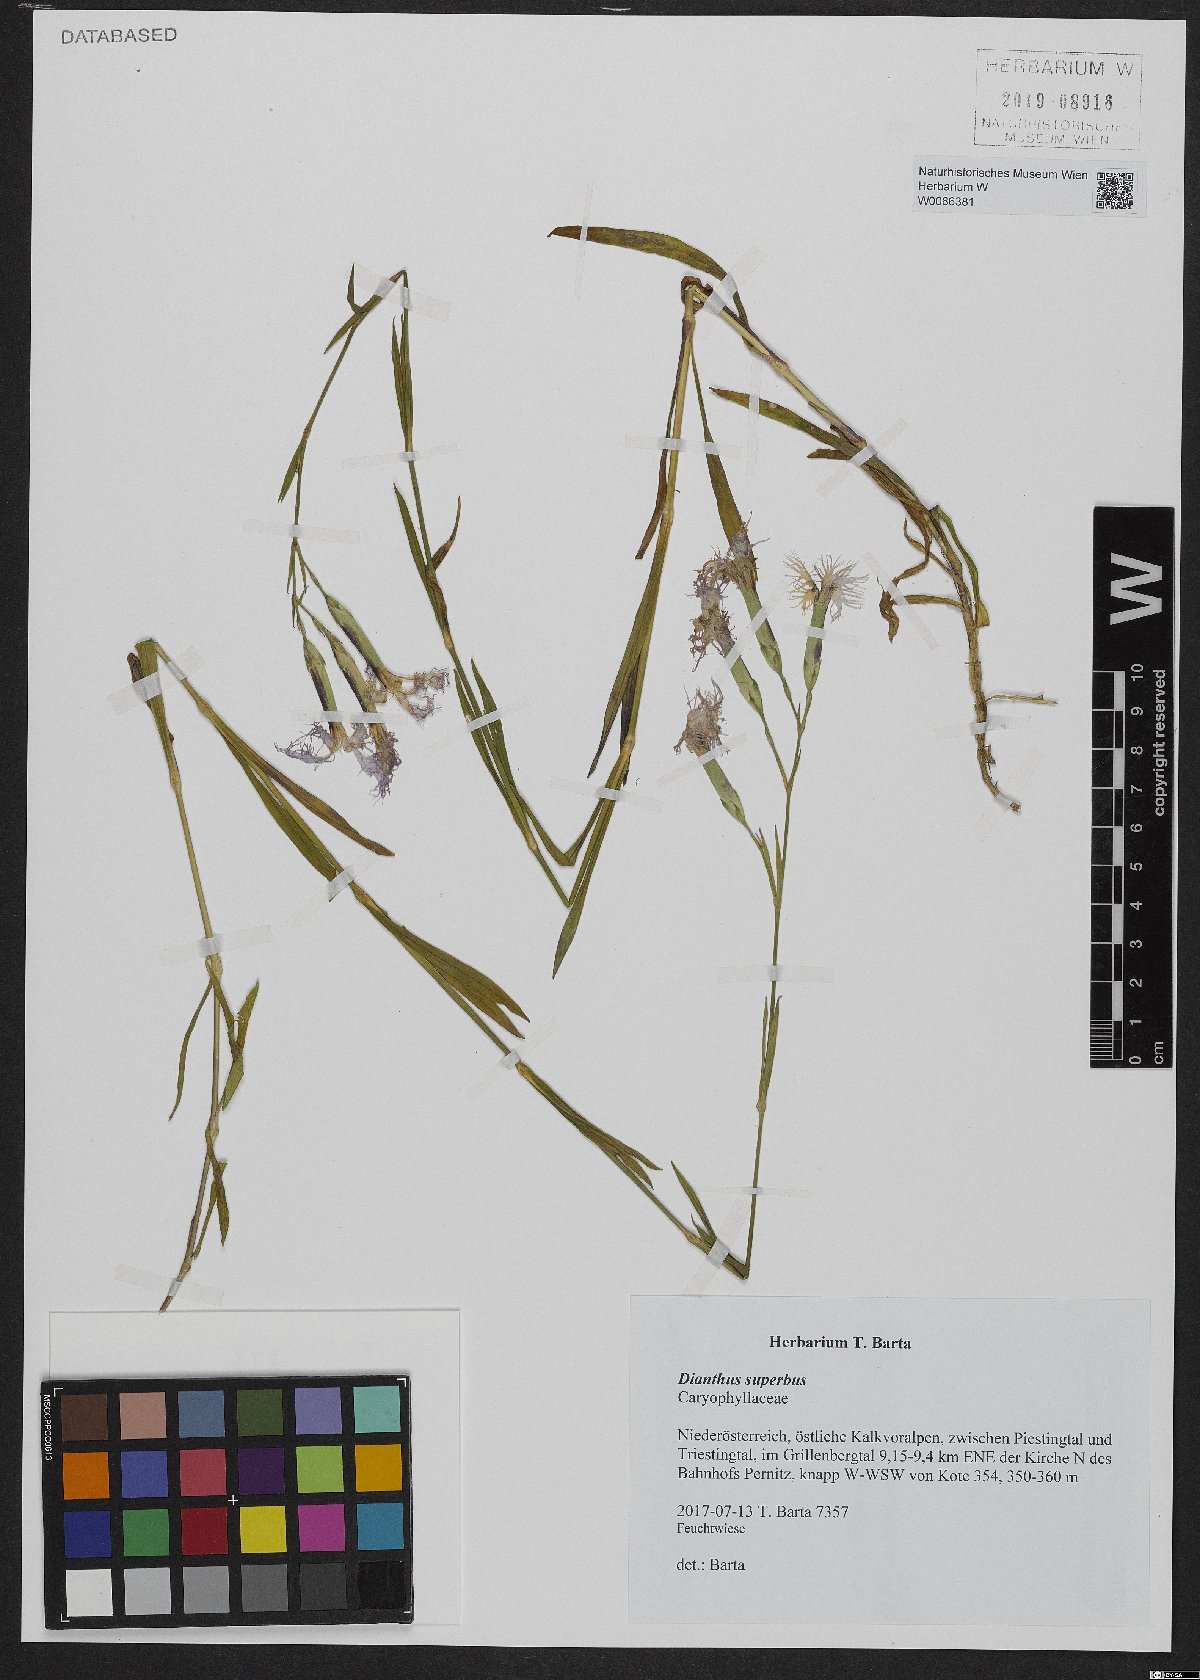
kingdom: Plantae
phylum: Tracheophyta
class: Magnoliopsida
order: Caryophyllales
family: Caryophyllaceae
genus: Dianthus
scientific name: Dianthus superbus
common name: Fringed pink
